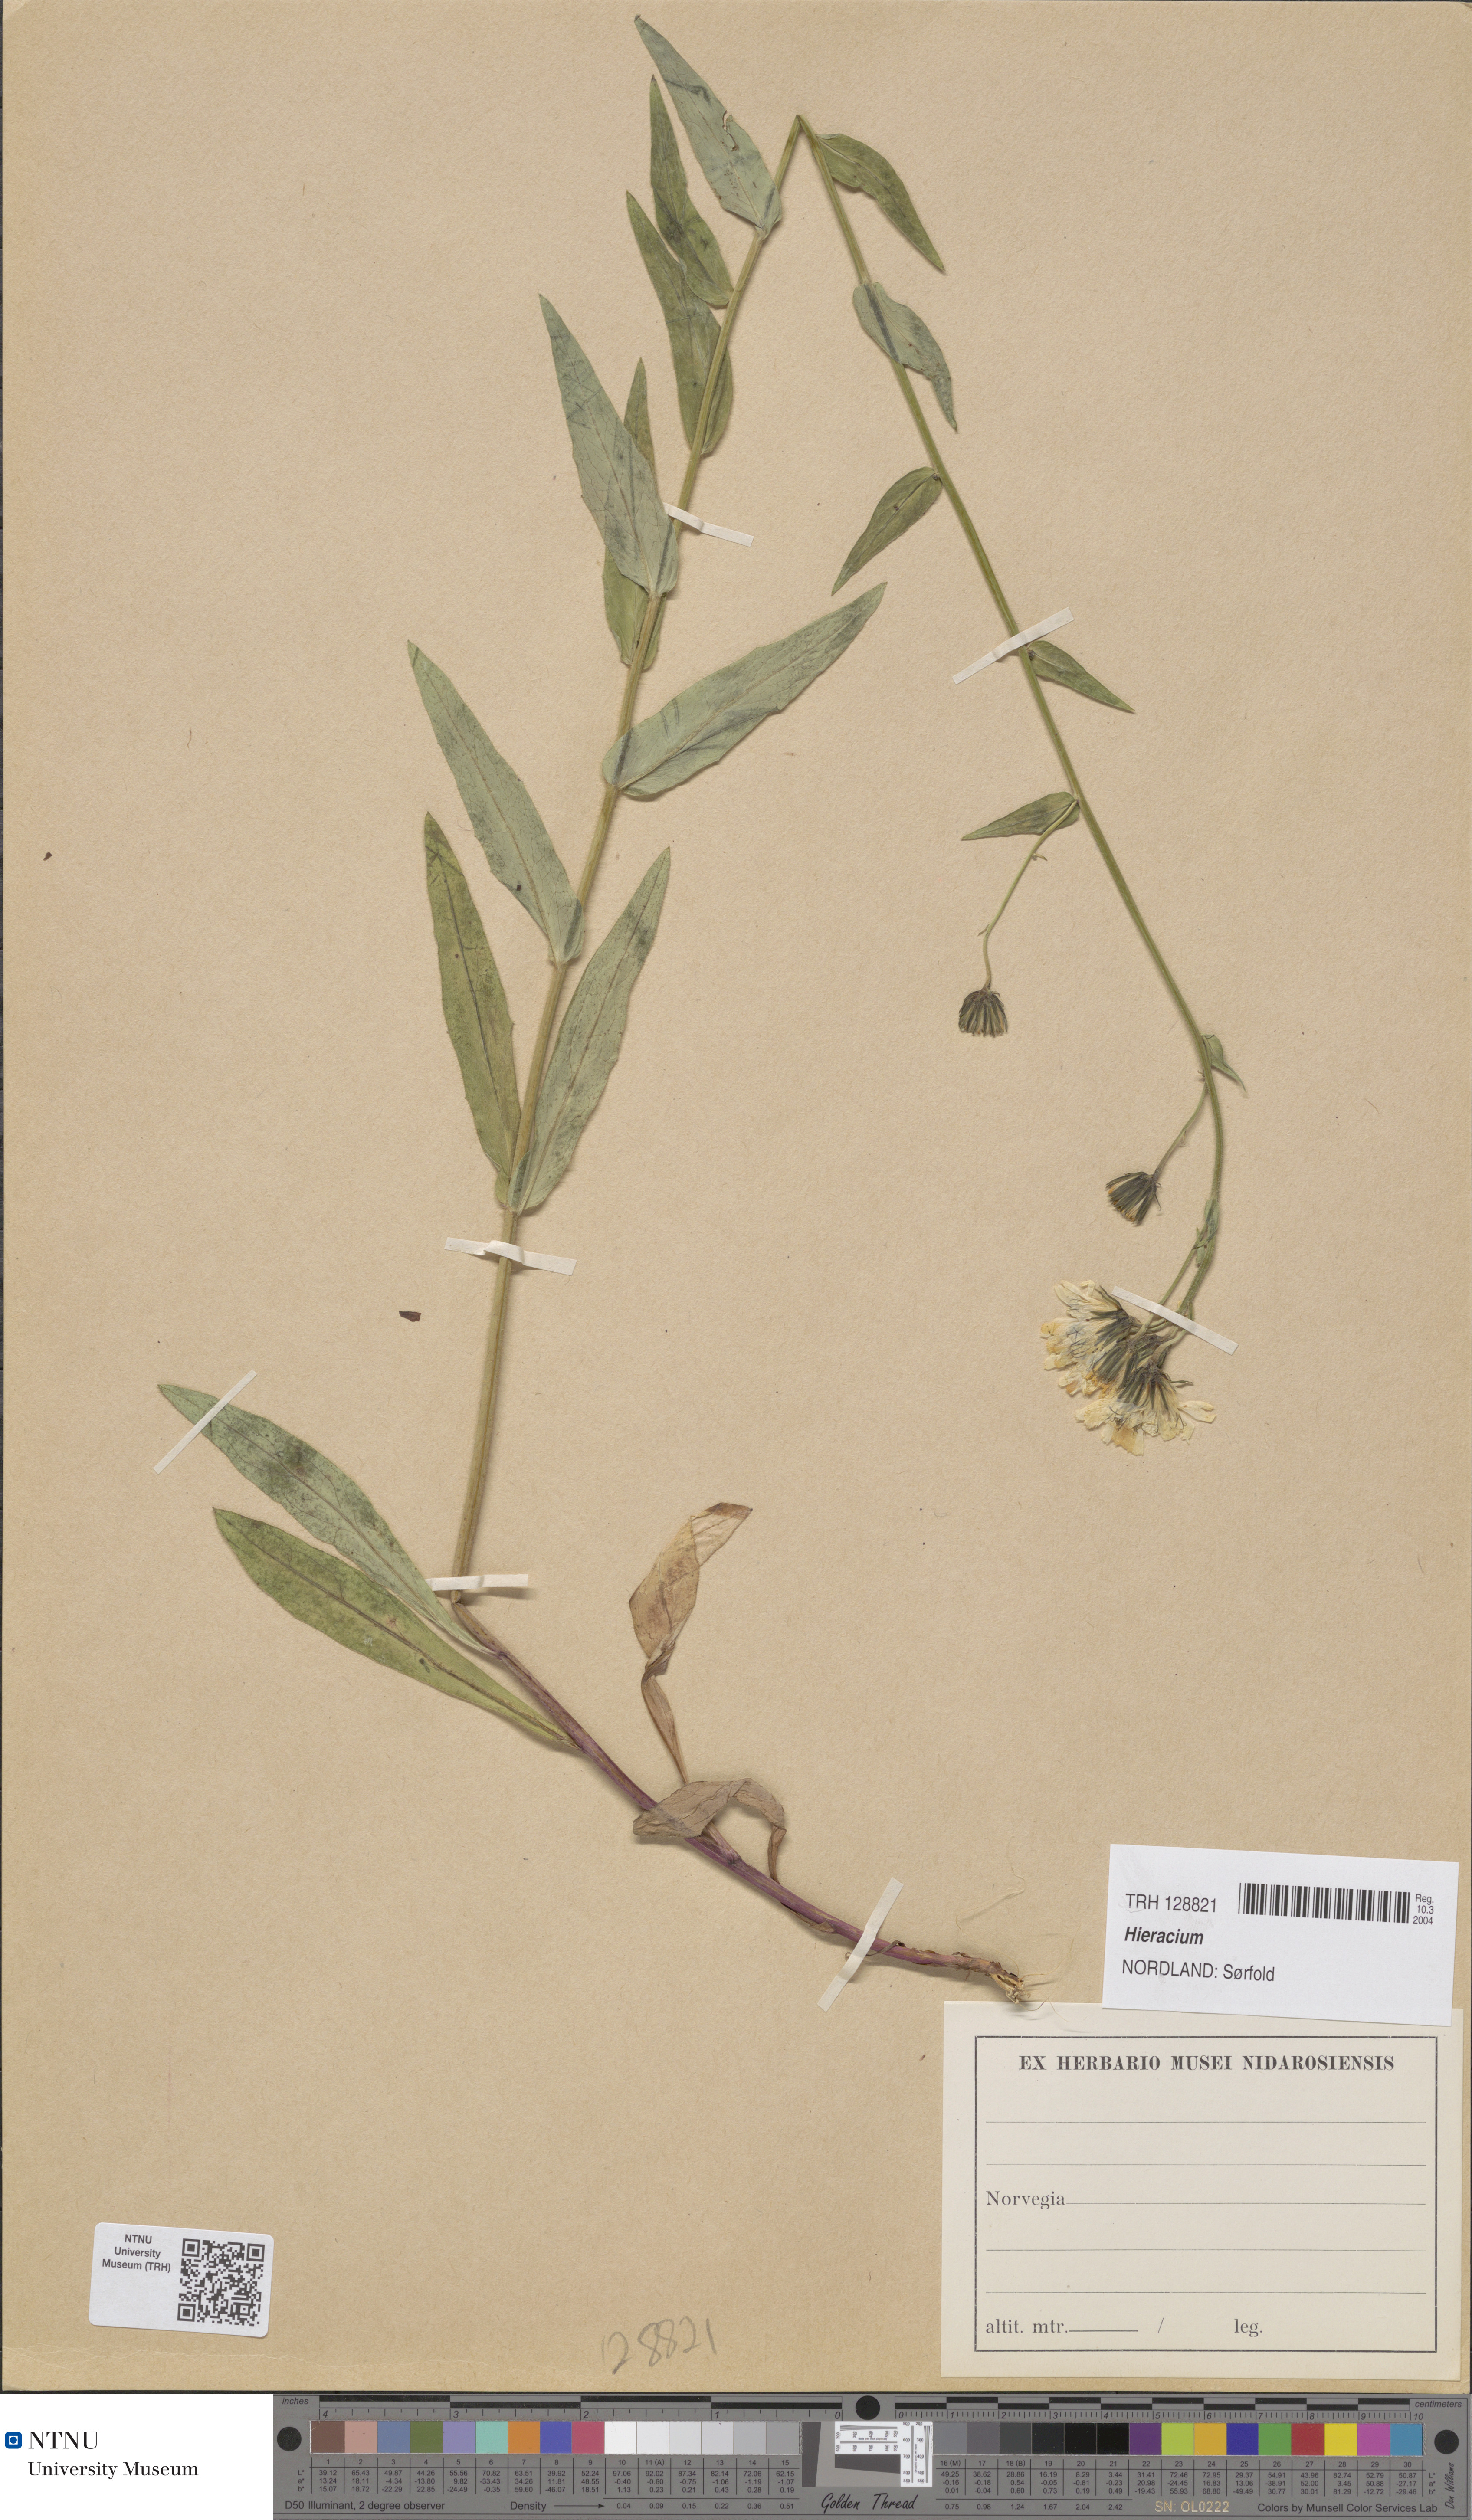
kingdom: Plantae
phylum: Tracheophyta
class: Magnoliopsida
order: Asterales
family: Asteraceae
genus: Hieracium
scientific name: Hieracium
